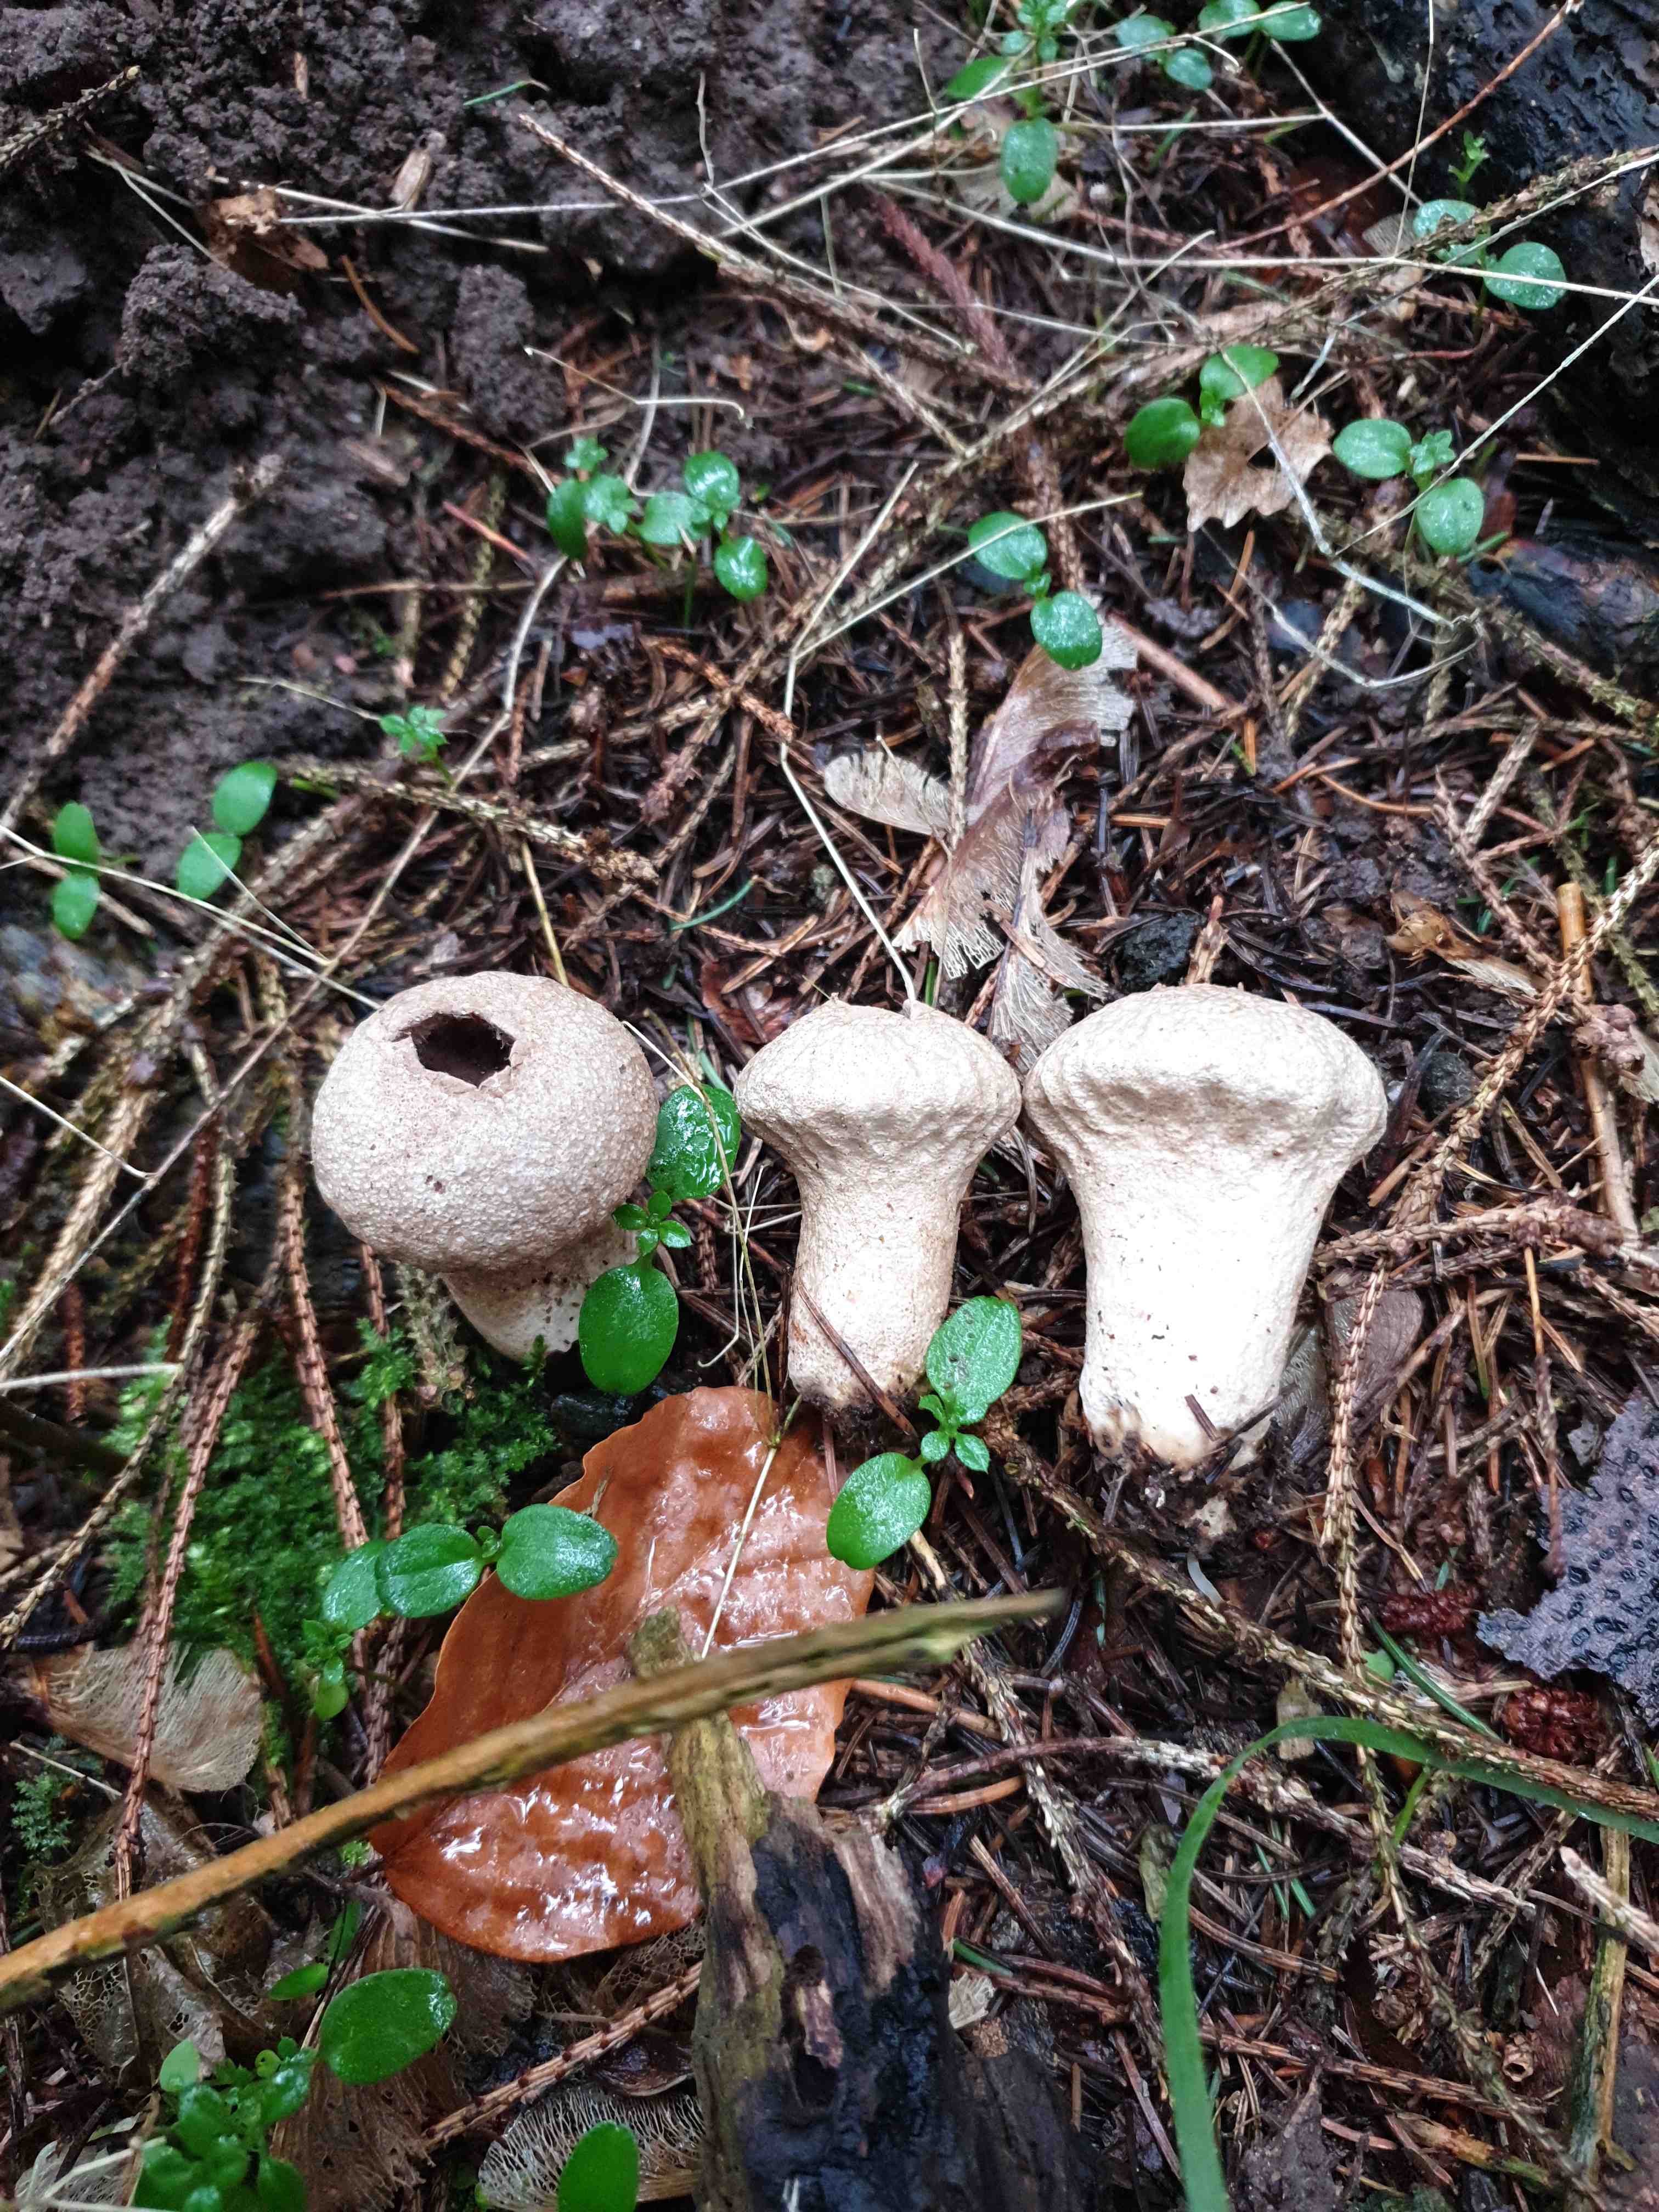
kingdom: Fungi
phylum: Basidiomycota
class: Agaricomycetes
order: Agaricales
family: Lycoperdaceae
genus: Lycoperdon
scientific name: Lycoperdon perlatum
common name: krystal-støvbold
